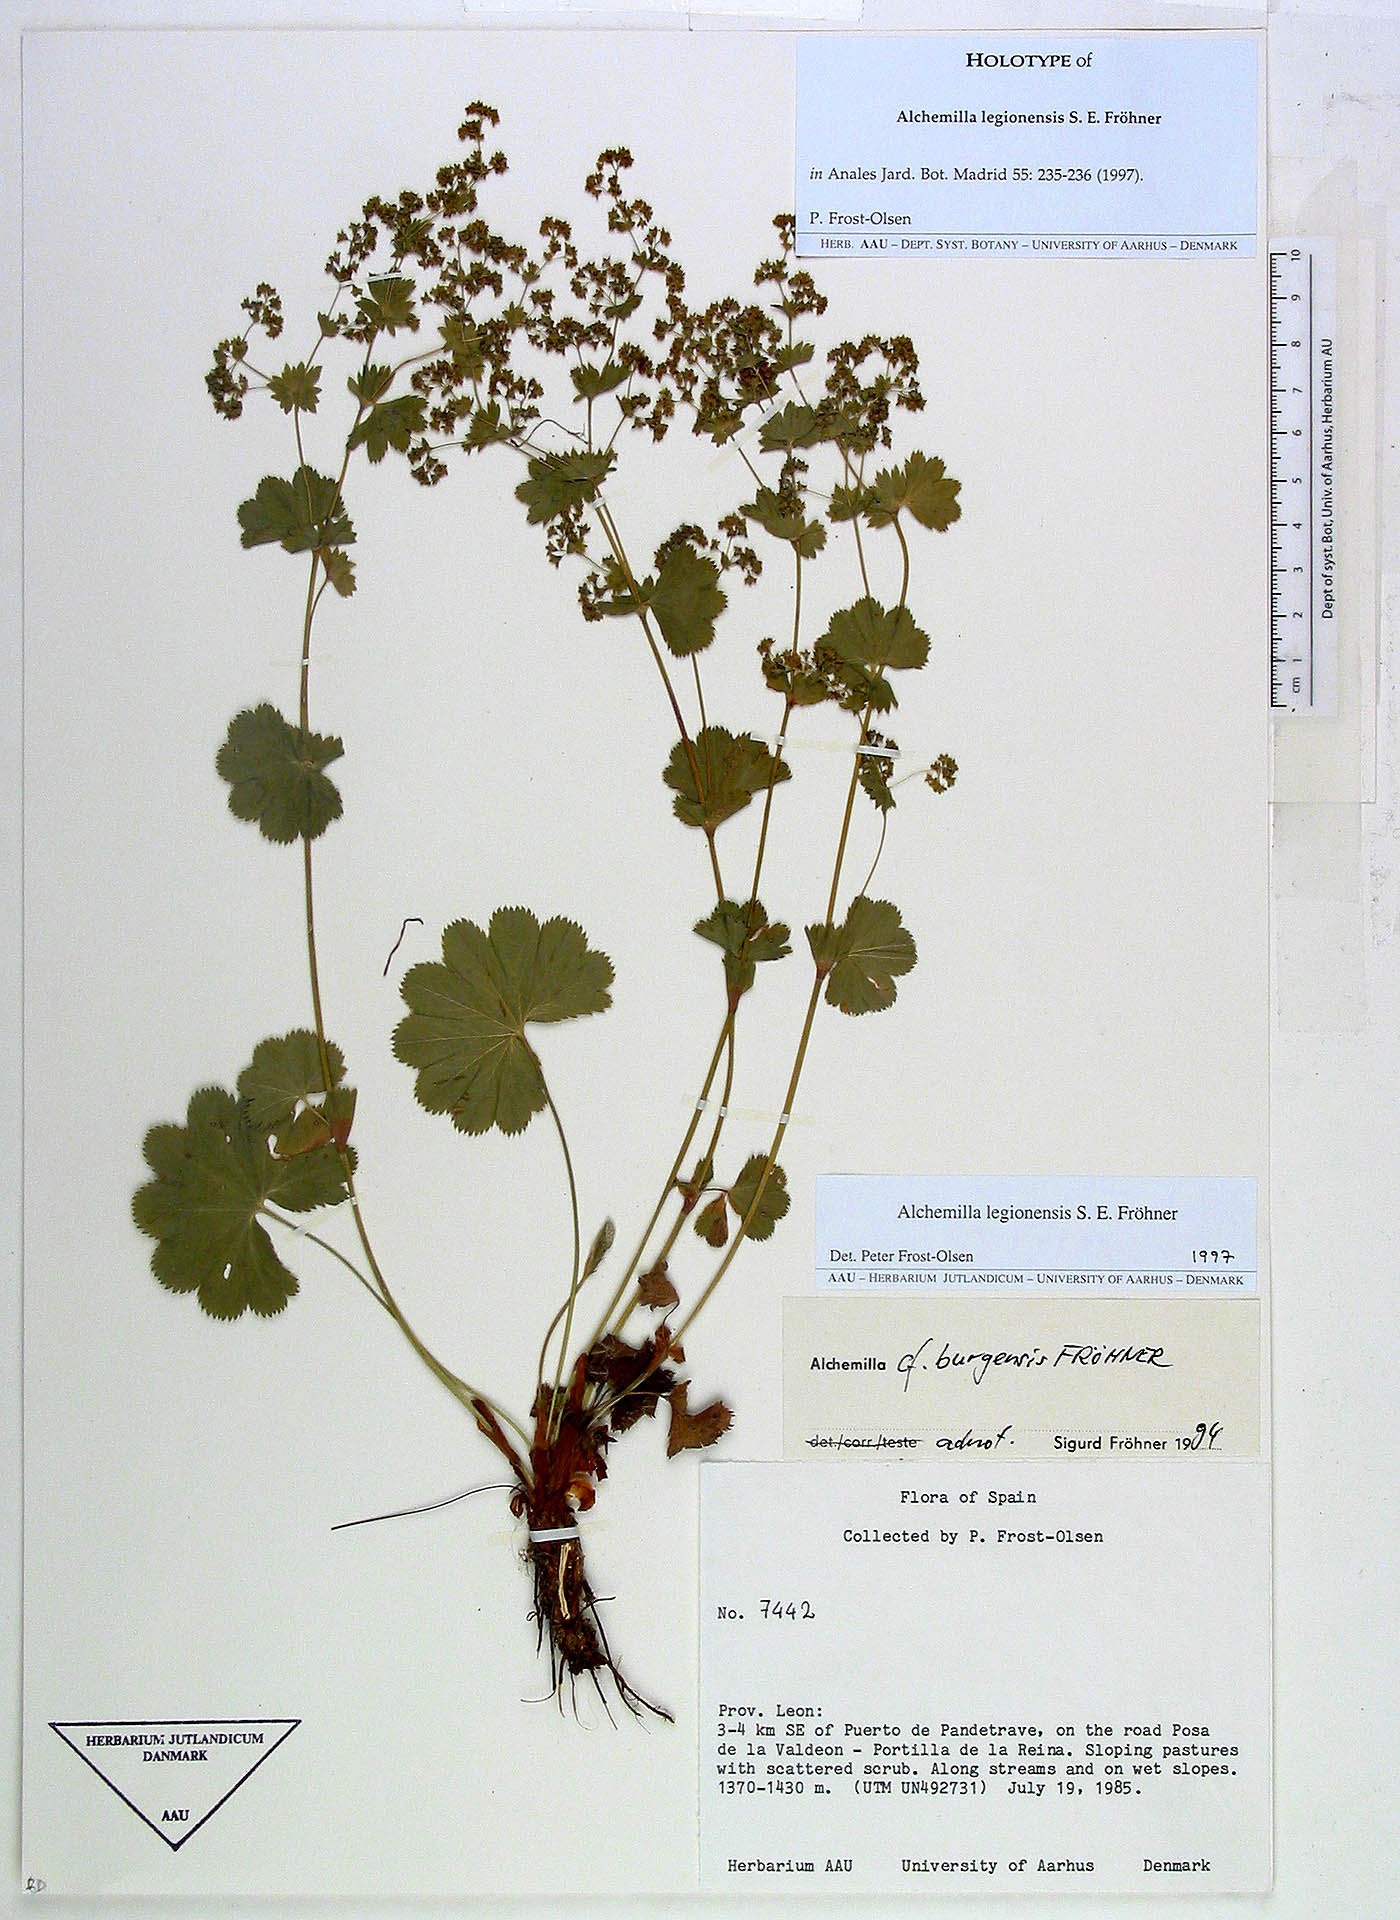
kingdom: Plantae
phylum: Tracheophyta
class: Magnoliopsida
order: Rosales
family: Rosaceae
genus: Alchemilla
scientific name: Alchemilla legionensis
